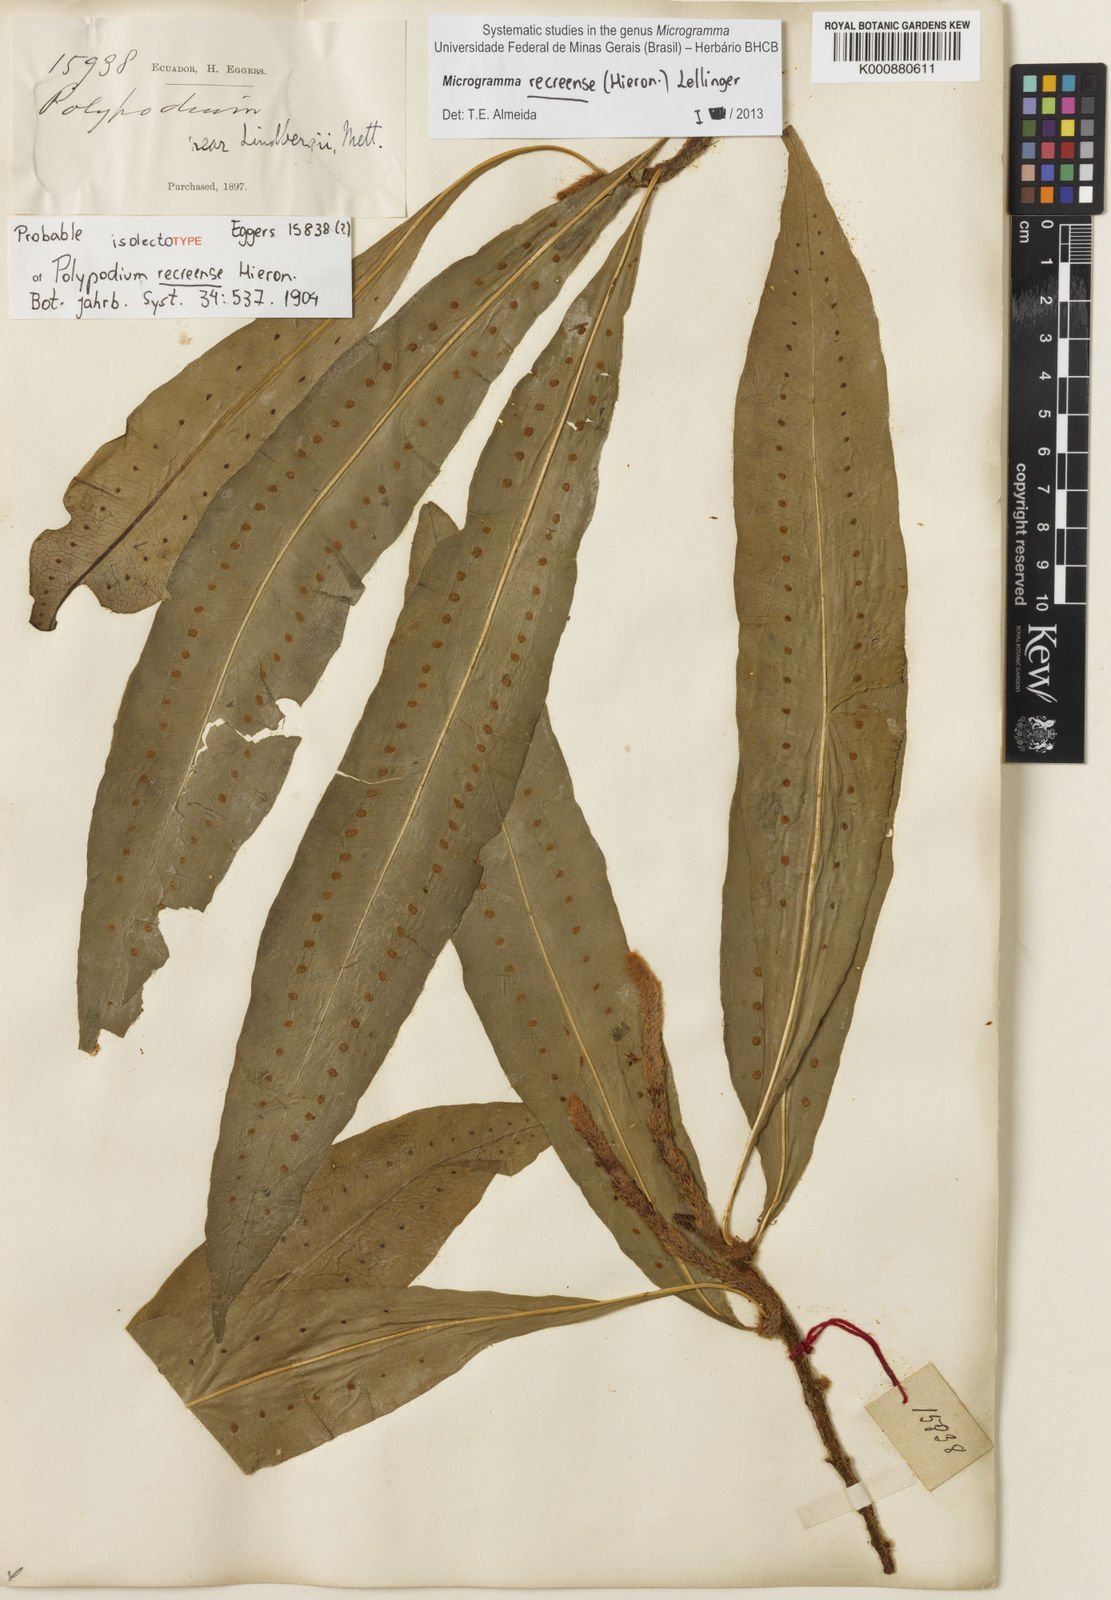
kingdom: Plantae
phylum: Tracheophyta
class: Polypodiopsida
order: Polypodiales
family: Polypodiaceae
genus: Microgramma
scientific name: Microgramma recreense
